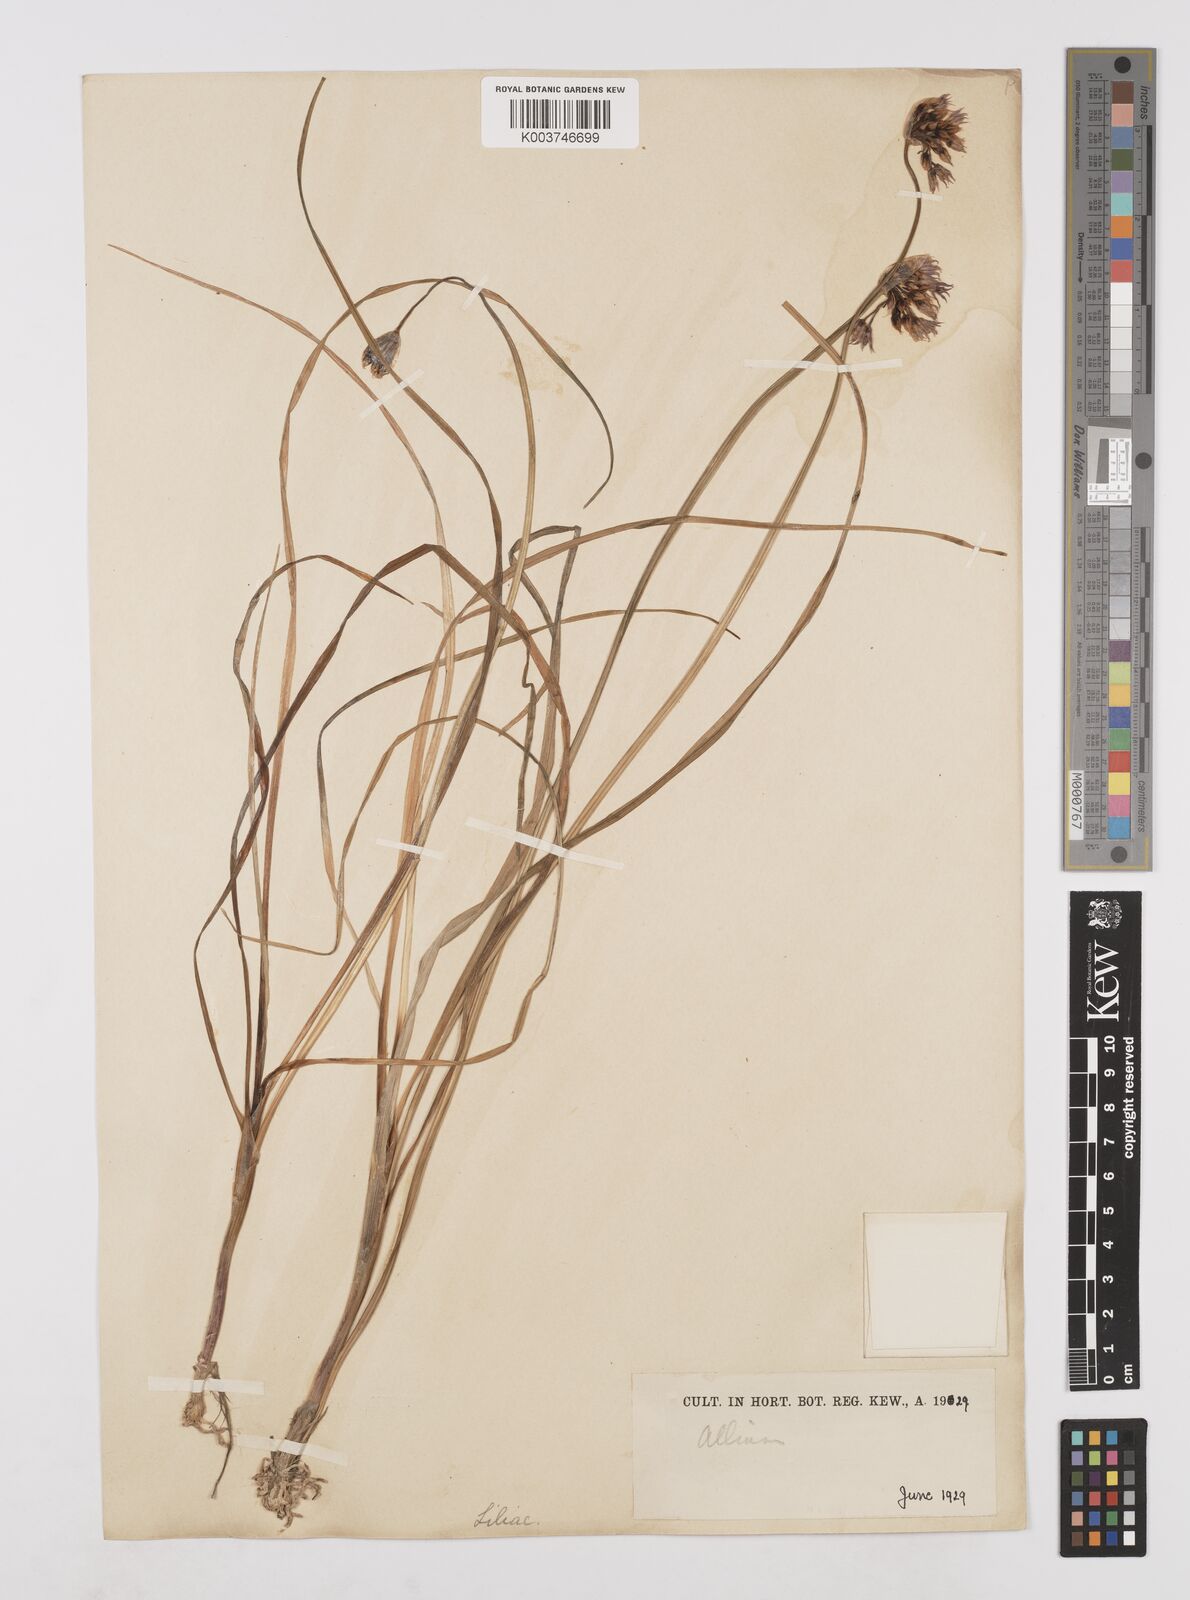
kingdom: Plantae
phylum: Tracheophyta
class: Liliopsida
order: Asparagales
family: Amaryllidaceae
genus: Allium
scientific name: Allium farreri
